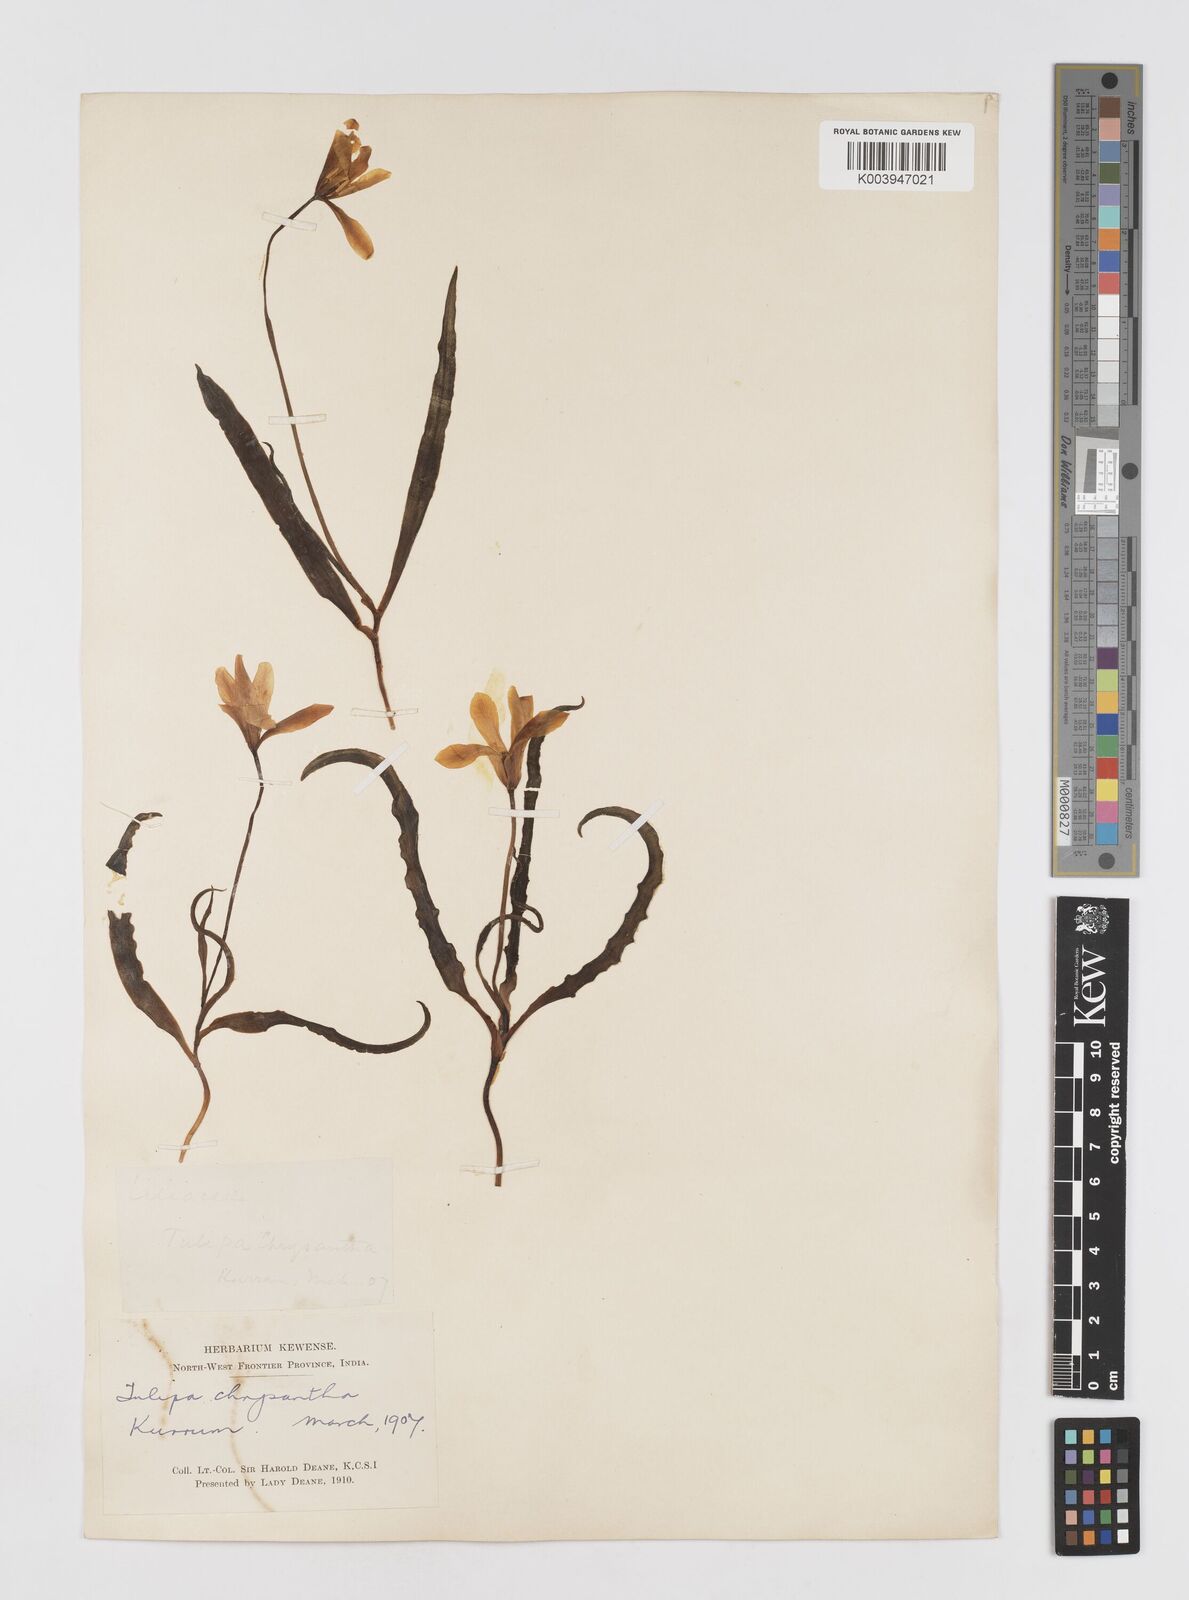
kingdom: Plantae
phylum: Tracheophyta
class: Liliopsida
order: Liliales
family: Liliaceae
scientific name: Liliaceae
